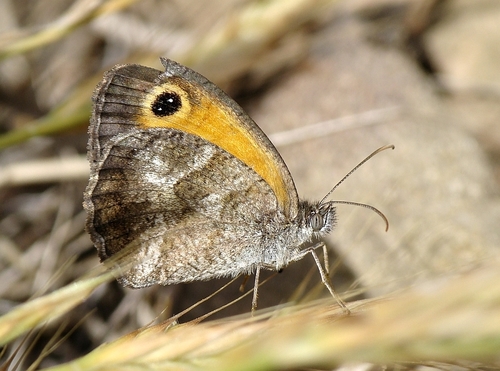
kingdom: Animalia
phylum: Arthropoda
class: Insecta
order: Lepidoptera
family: Nymphalidae
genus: Pyronia
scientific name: Pyronia cecilia
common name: Southern gatekeeper
